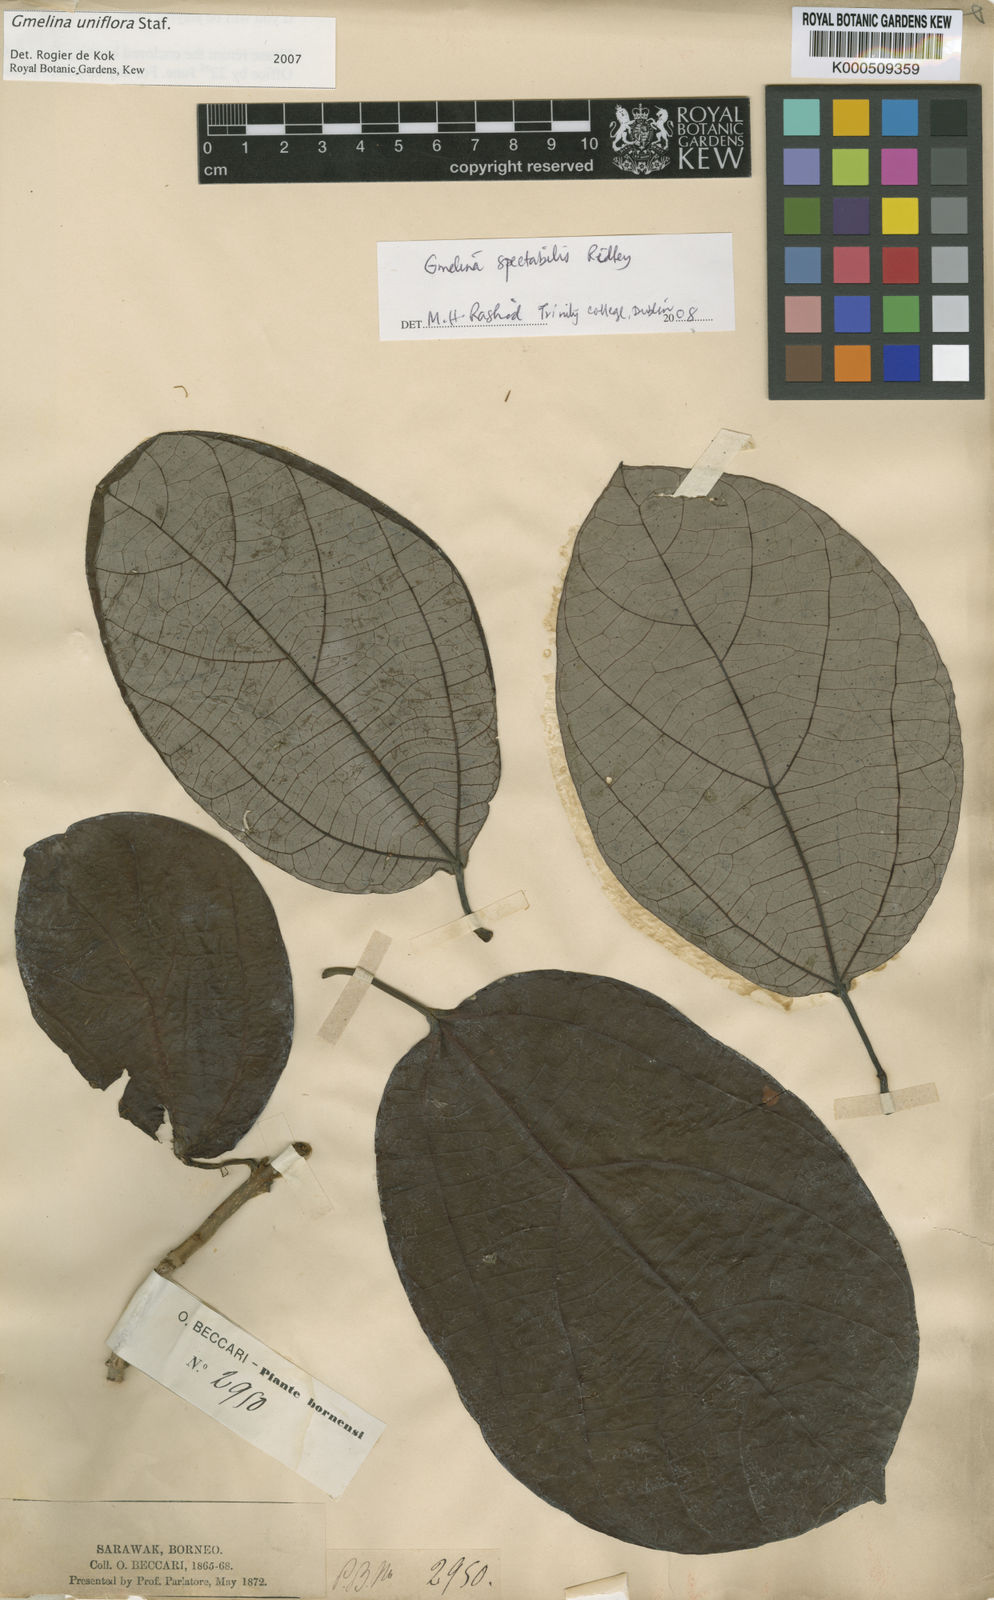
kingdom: Plantae
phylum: Tracheophyta
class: Magnoliopsida
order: Lamiales
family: Lamiaceae
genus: Gmelina
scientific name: Gmelina uniflora
